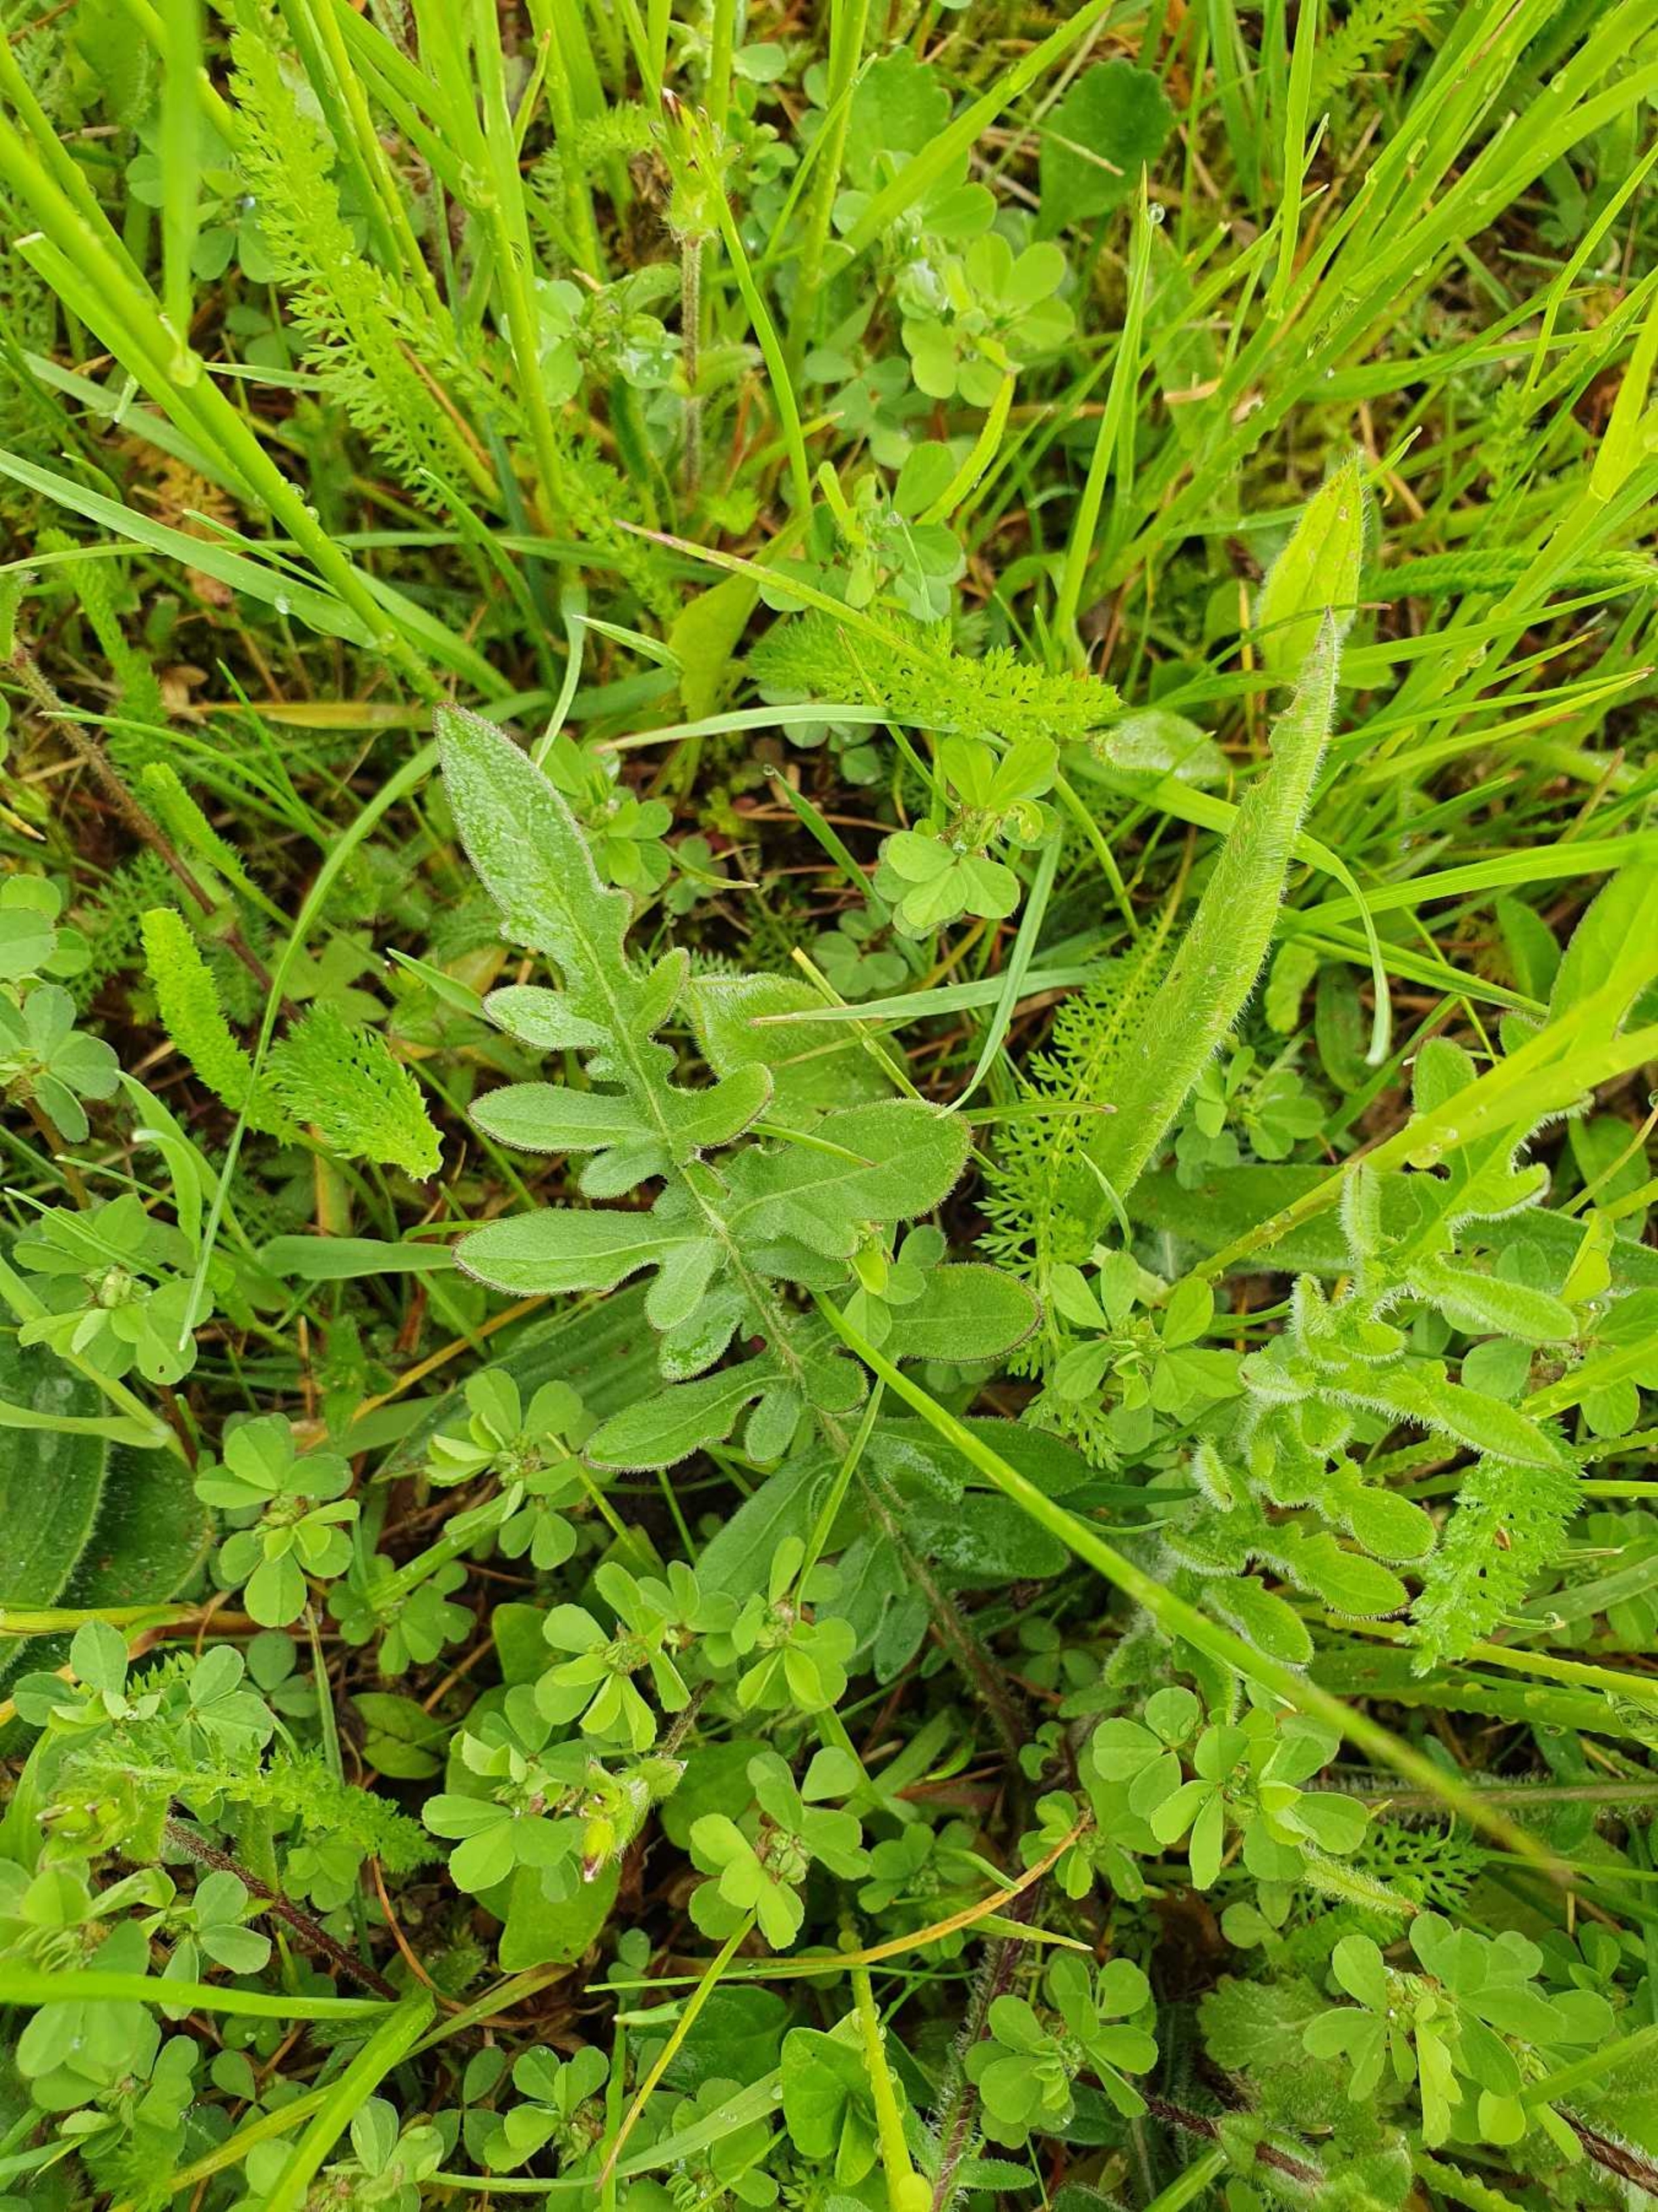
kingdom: Plantae
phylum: Tracheophyta
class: Magnoliopsida
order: Asterales
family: Asteraceae
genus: Centaurea
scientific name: Centaurea scabiosa
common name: Stor knopurt
